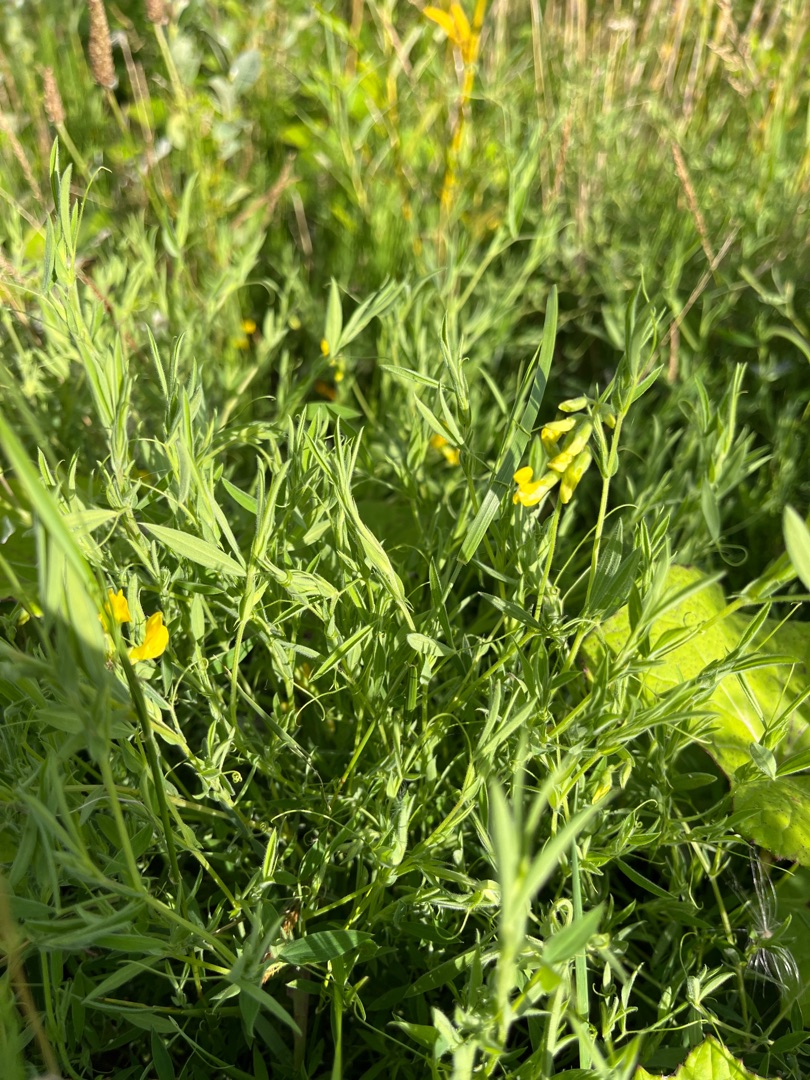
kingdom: Plantae
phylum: Tracheophyta
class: Magnoliopsida
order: Fabales
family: Fabaceae
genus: Lathyrus
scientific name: Lathyrus pratensis
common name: Gul fladbælg
